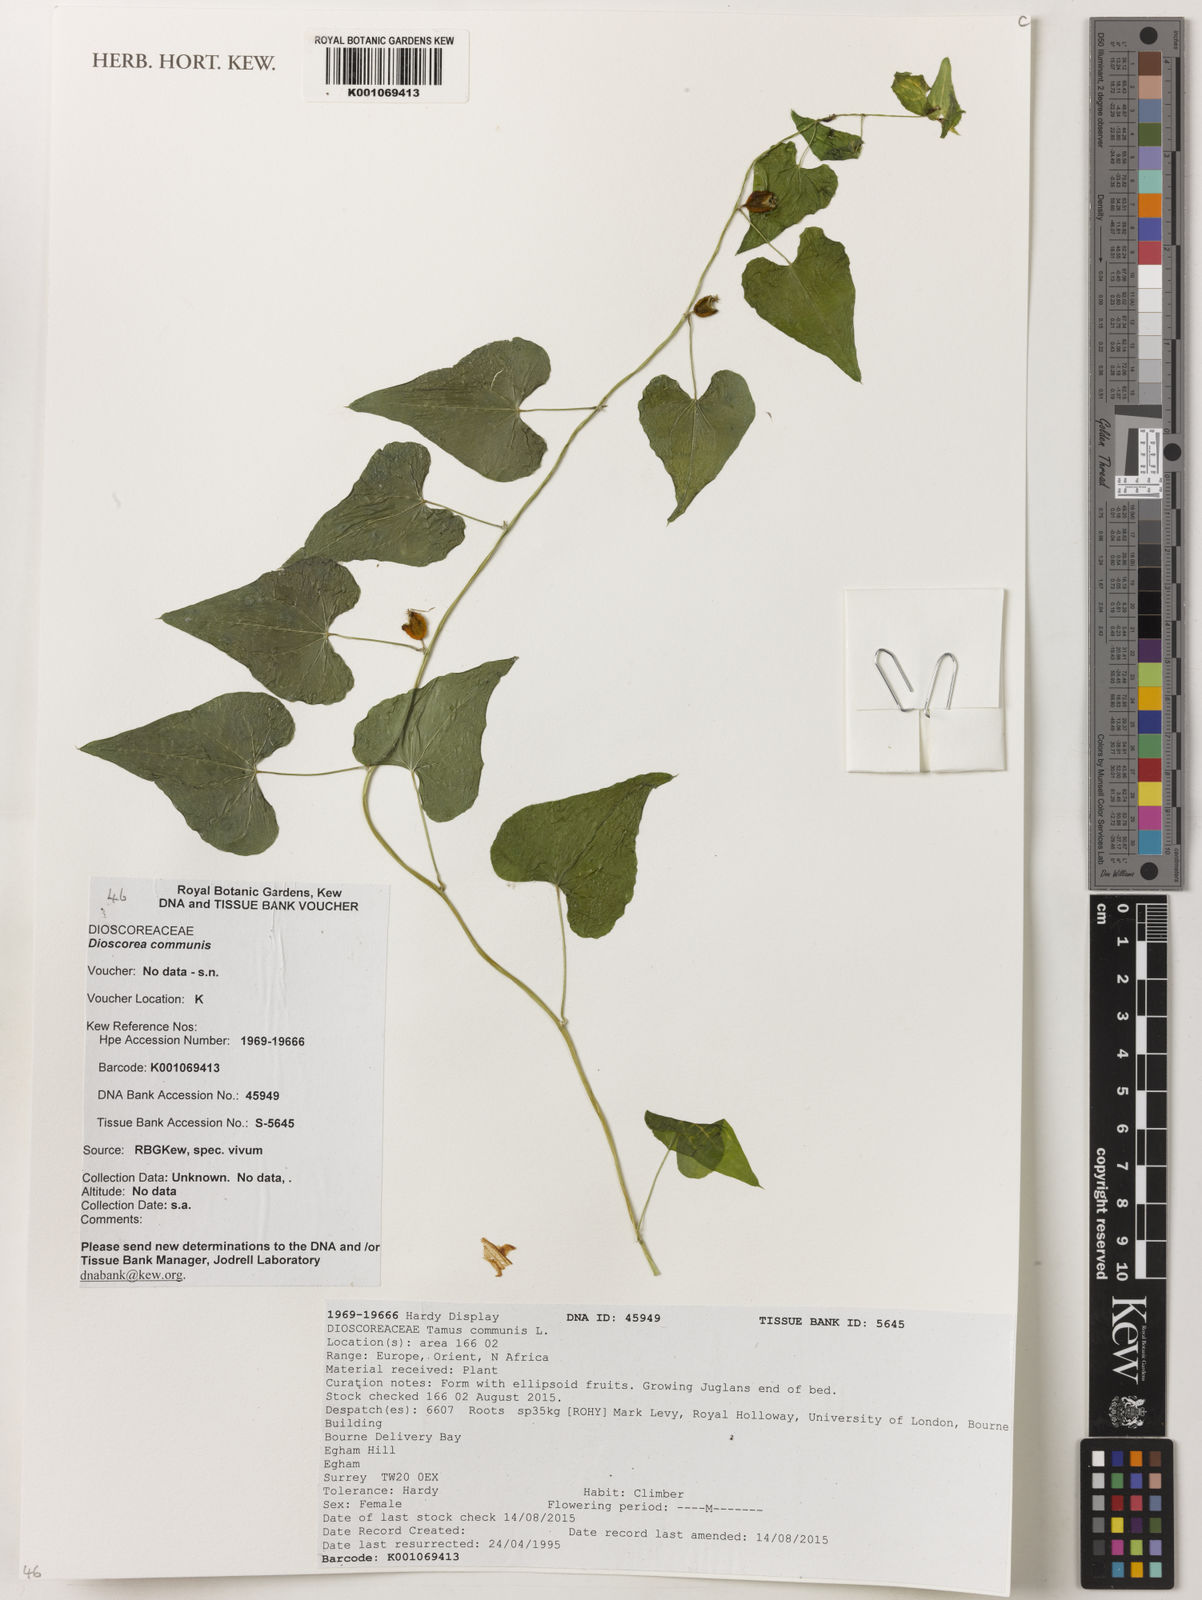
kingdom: Plantae
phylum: Tracheophyta
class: Liliopsida
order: Dioscoreales
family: Dioscoreaceae
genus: Dioscorea
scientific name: Dioscorea communis
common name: Black-bindweed
